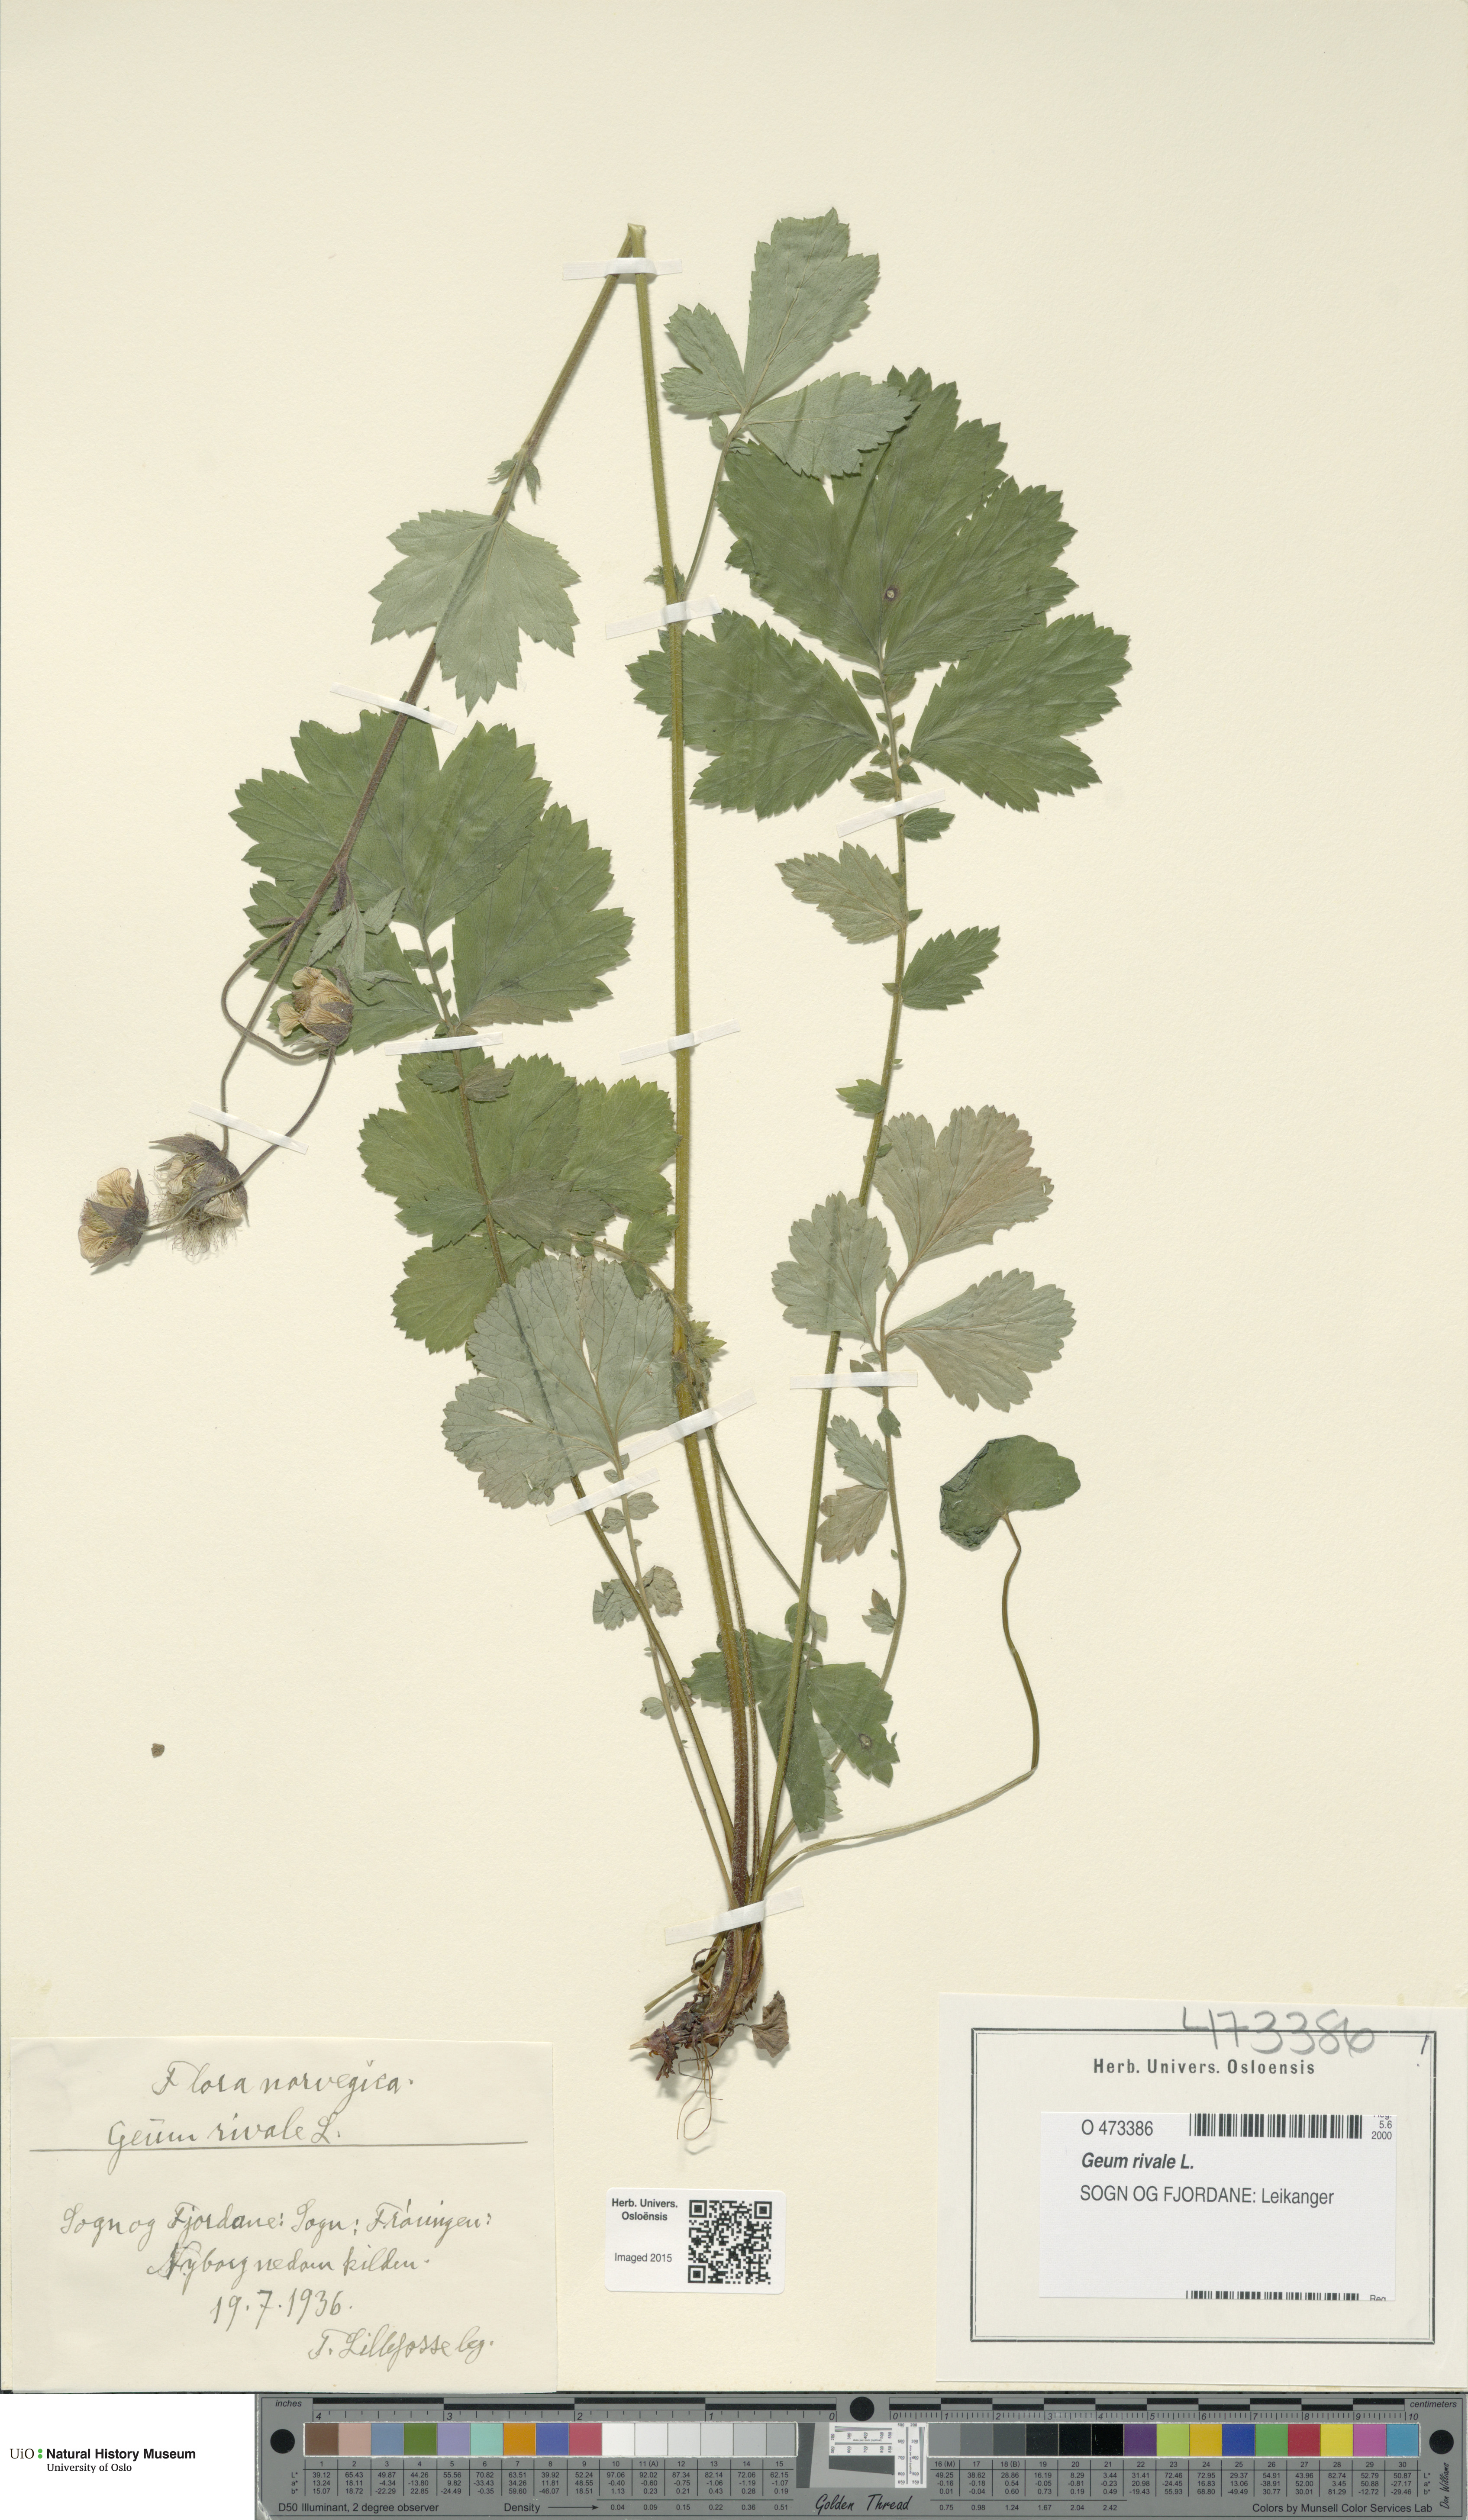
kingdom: Plantae
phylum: Tracheophyta
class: Magnoliopsida
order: Rosales
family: Rosaceae
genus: Geum
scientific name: Geum rivale
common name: Water avens
